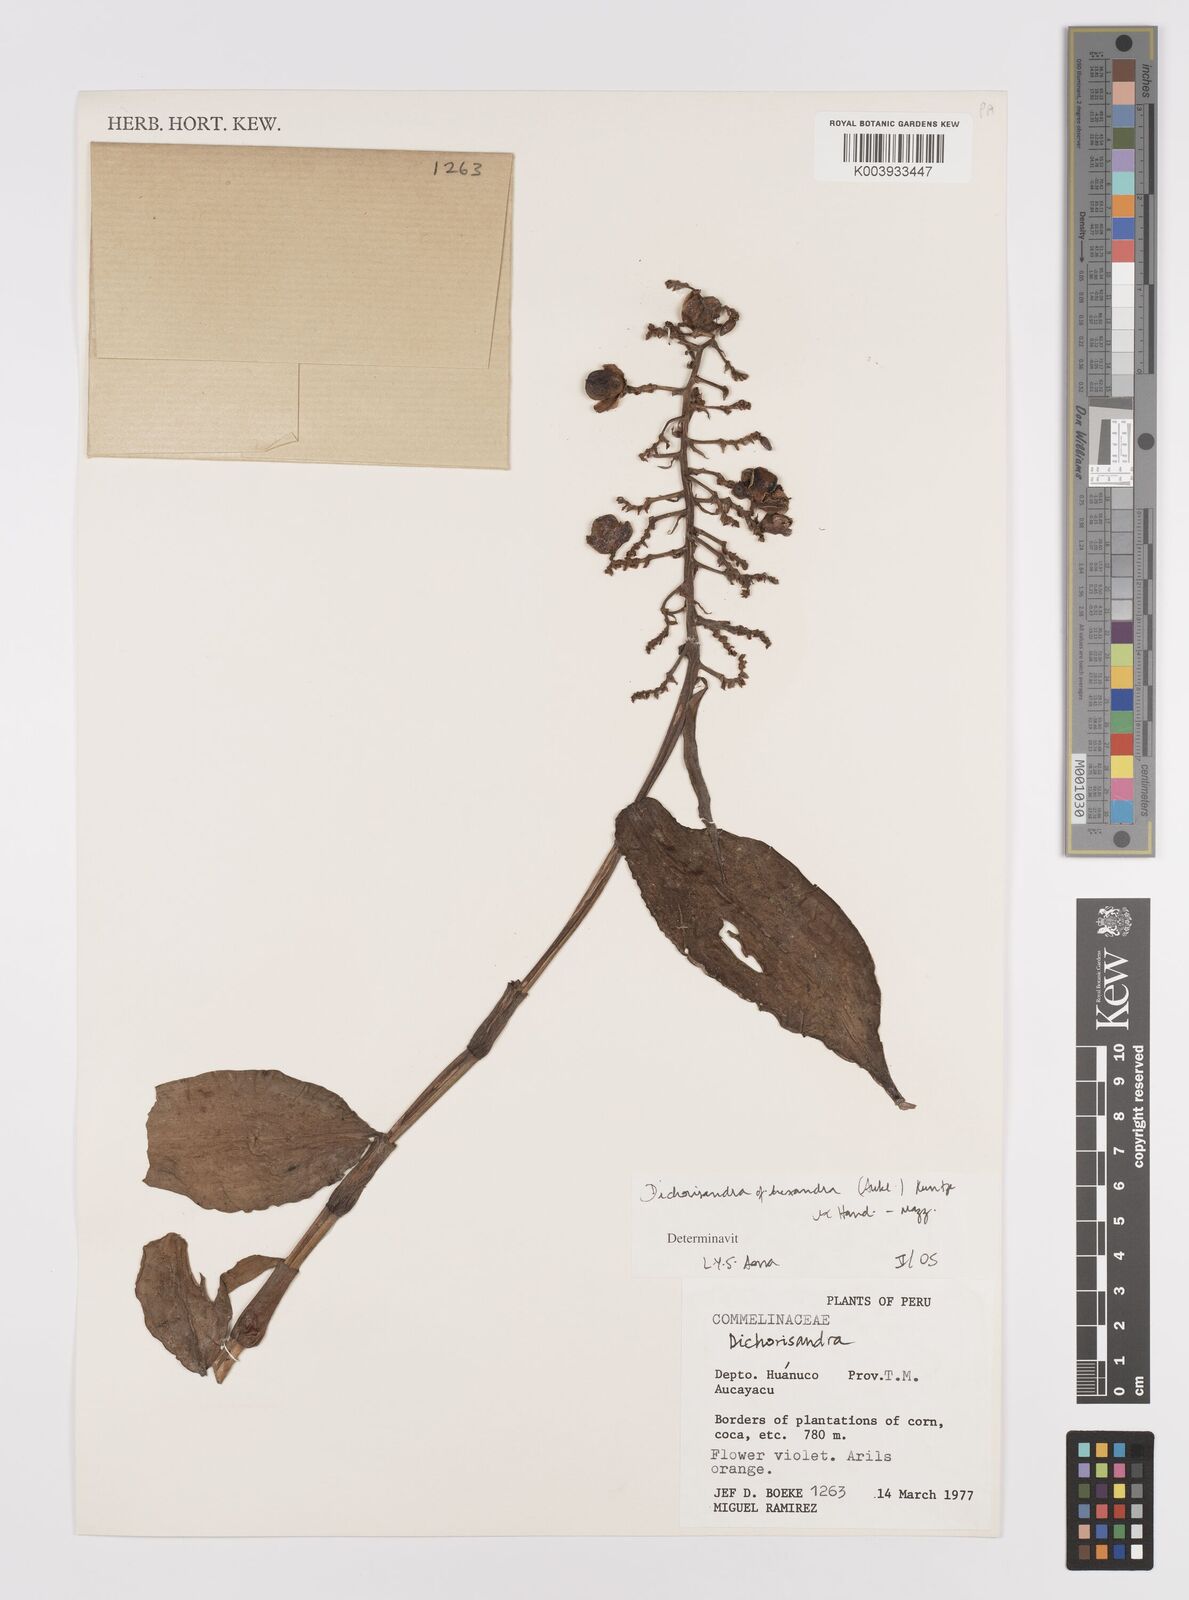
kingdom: Plantae
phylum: Tracheophyta
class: Liliopsida
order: Commelinales
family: Commelinaceae
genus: Dichorisandra
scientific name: Dichorisandra hexandra
